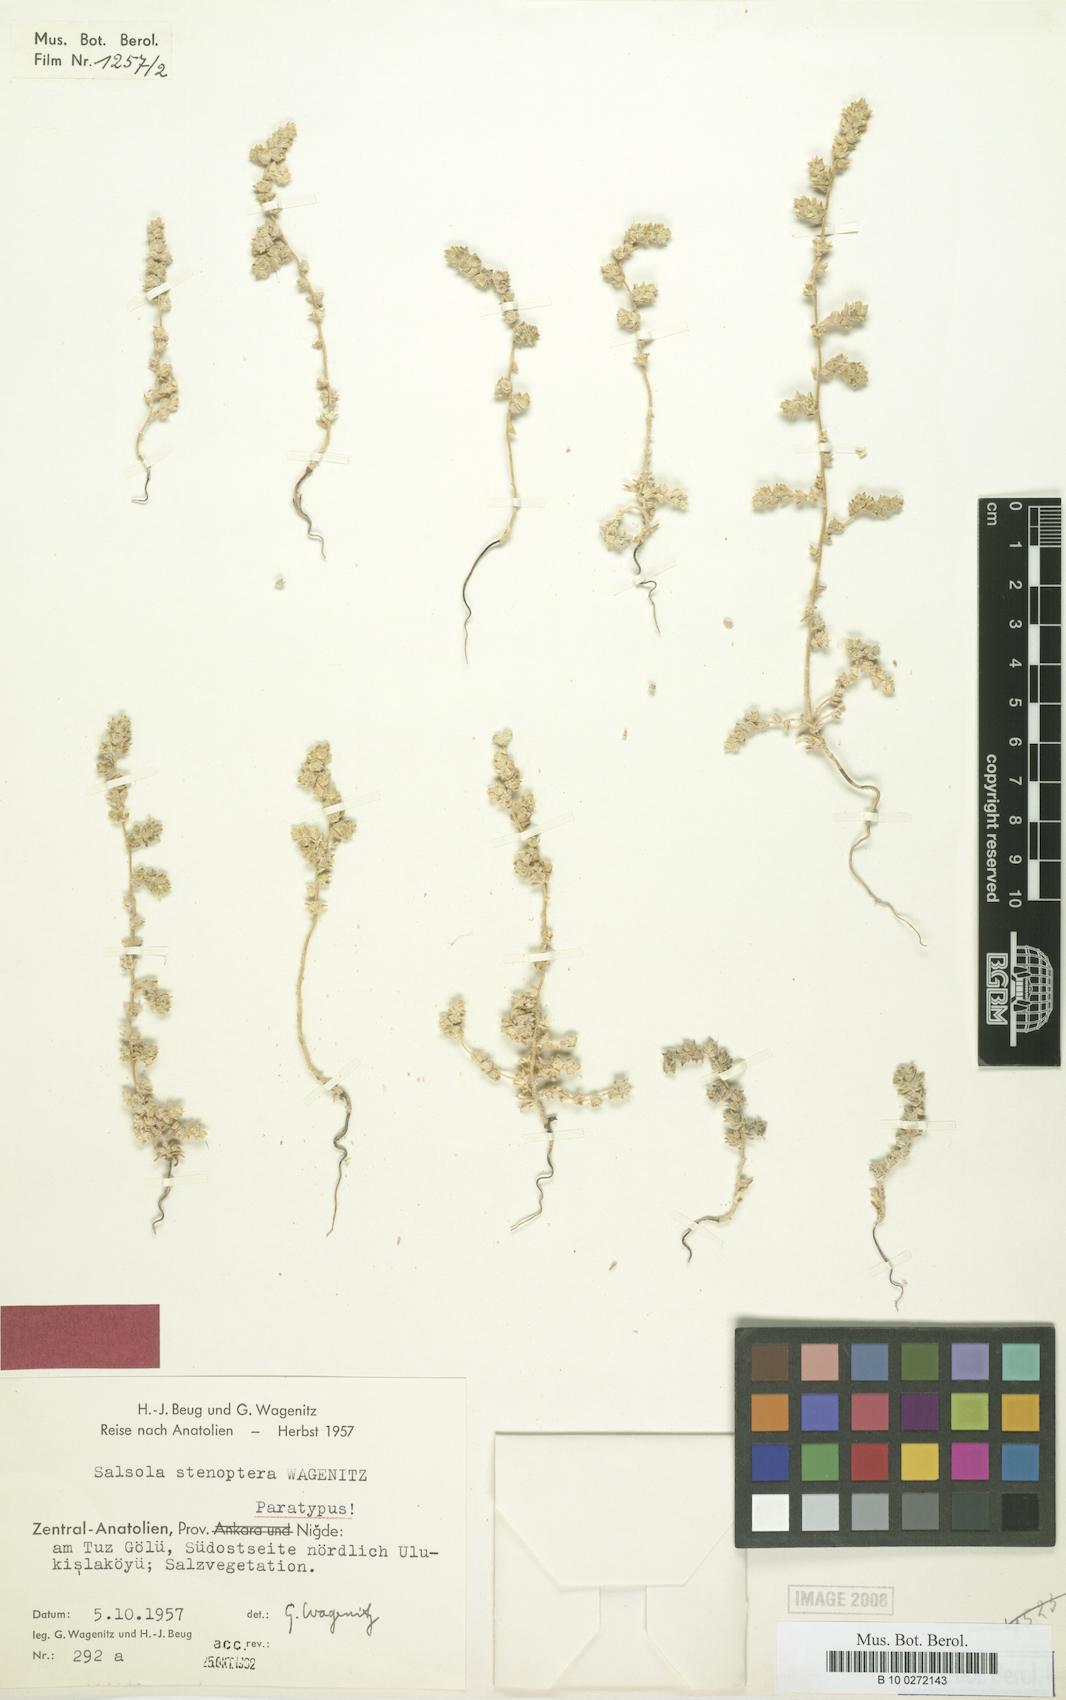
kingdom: Plantae
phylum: Tracheophyta
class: Magnoliopsida
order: Caryophyllales
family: Amaranthaceae
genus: Caroxylon
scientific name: Caroxylon stenopterum
